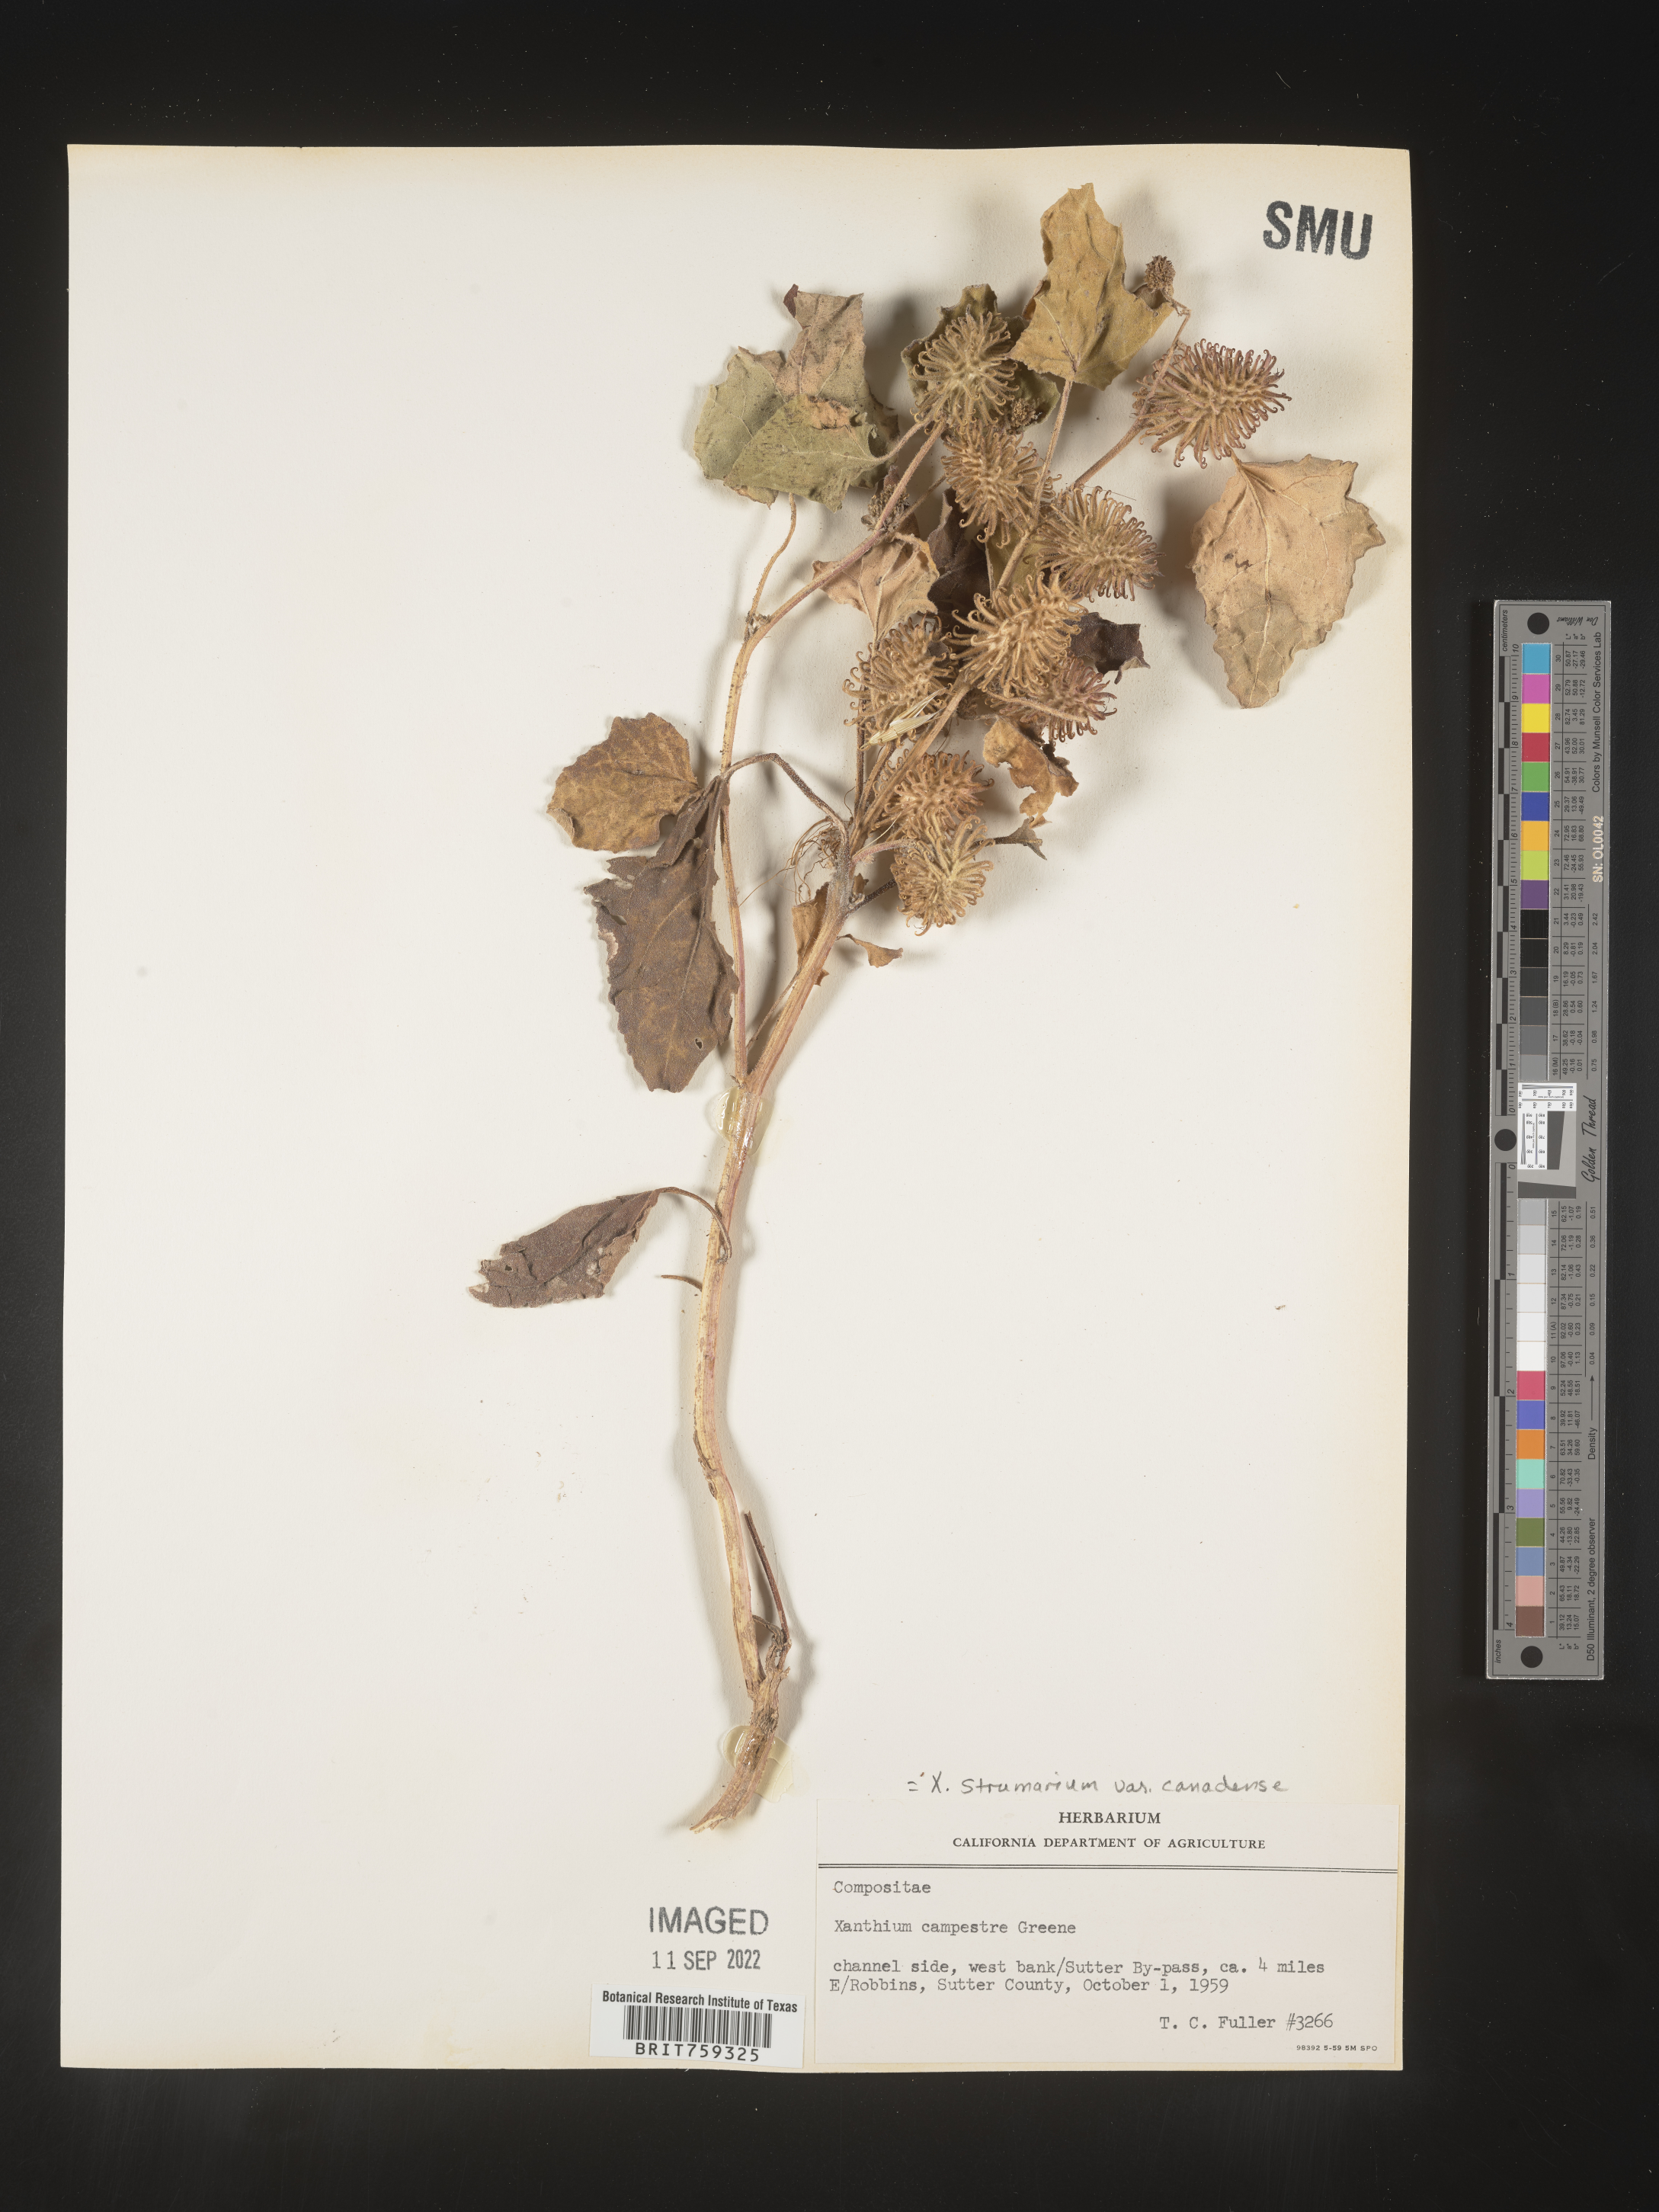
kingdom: Plantae
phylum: Tracheophyta
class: Magnoliopsida
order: Asterales
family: Asteraceae
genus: Xanthium
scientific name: Xanthium orientale
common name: Californian burr
